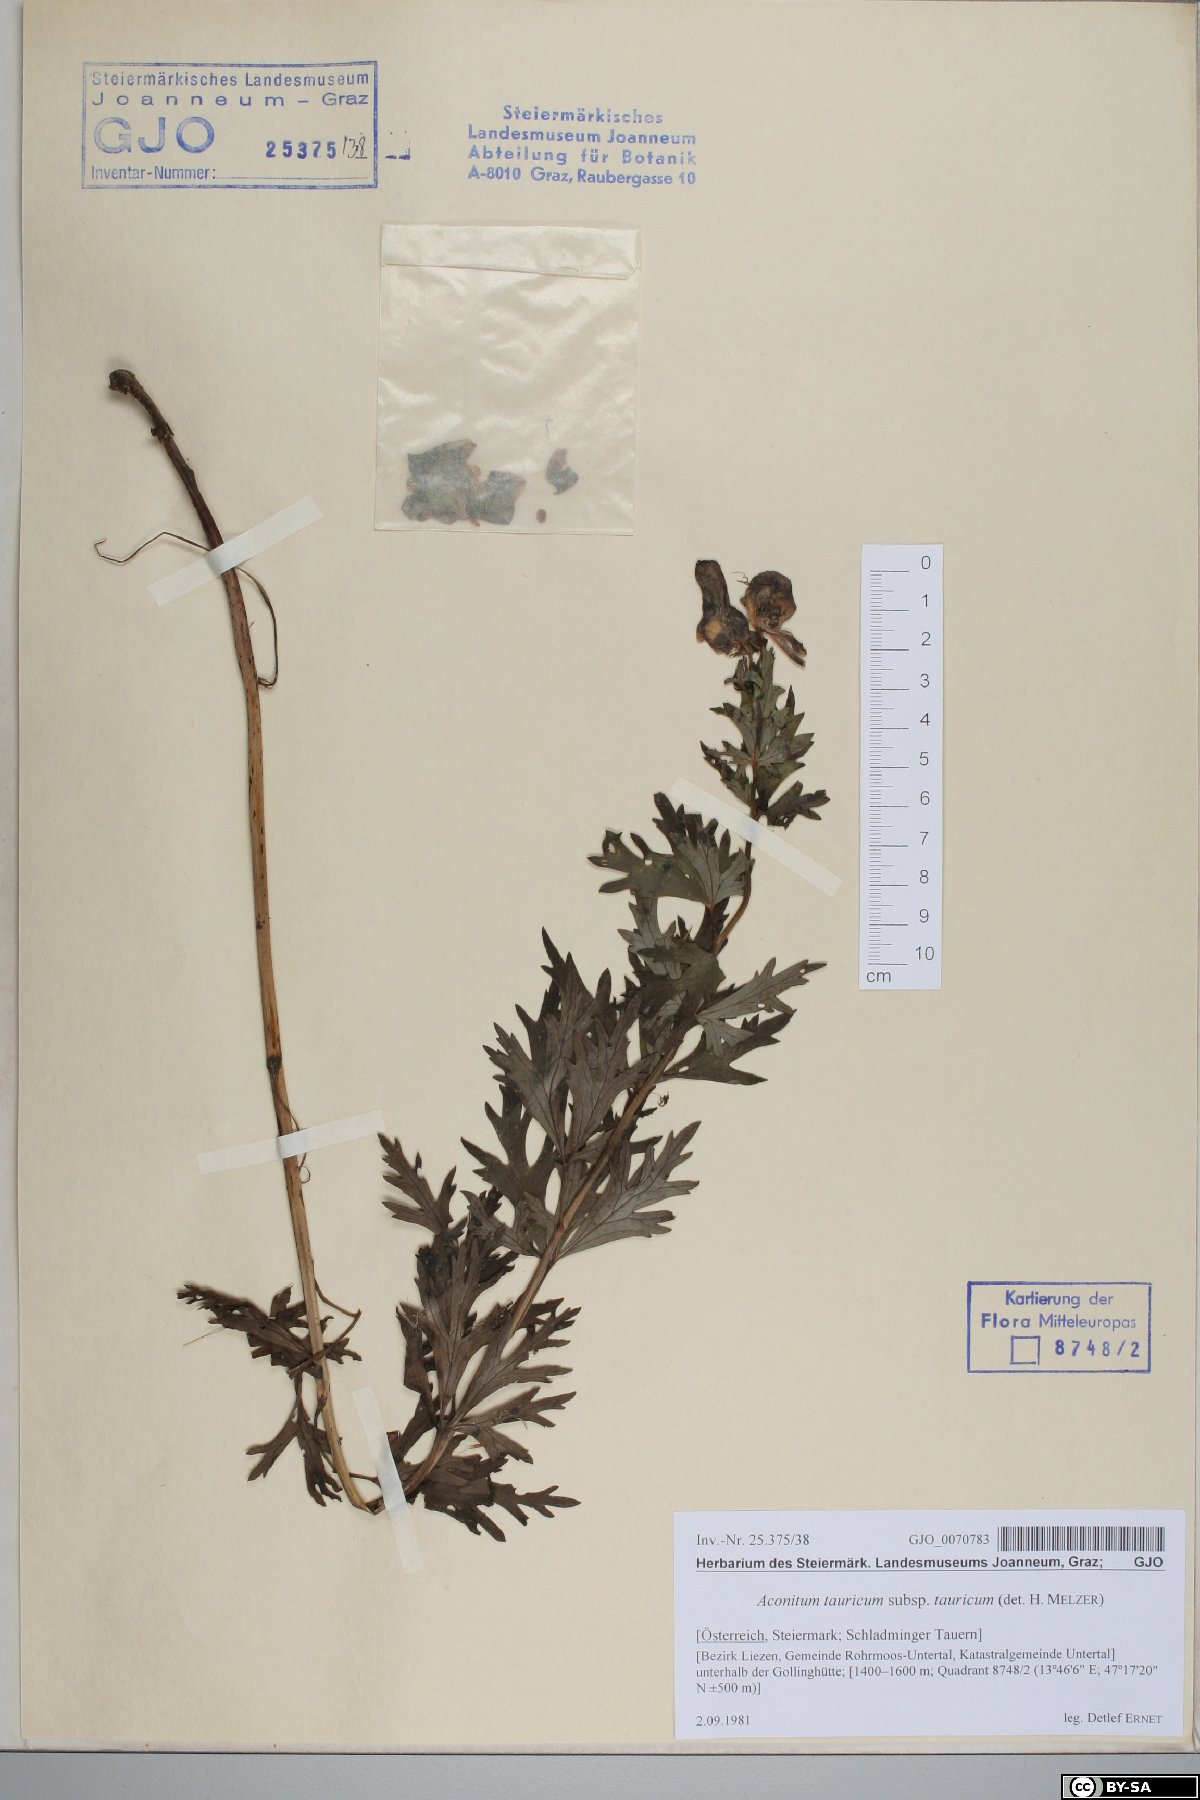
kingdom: Plantae
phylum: Tracheophyta
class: Magnoliopsida
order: Ranunculales
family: Ranunculaceae
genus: Aconitum
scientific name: Aconitum tauricum
